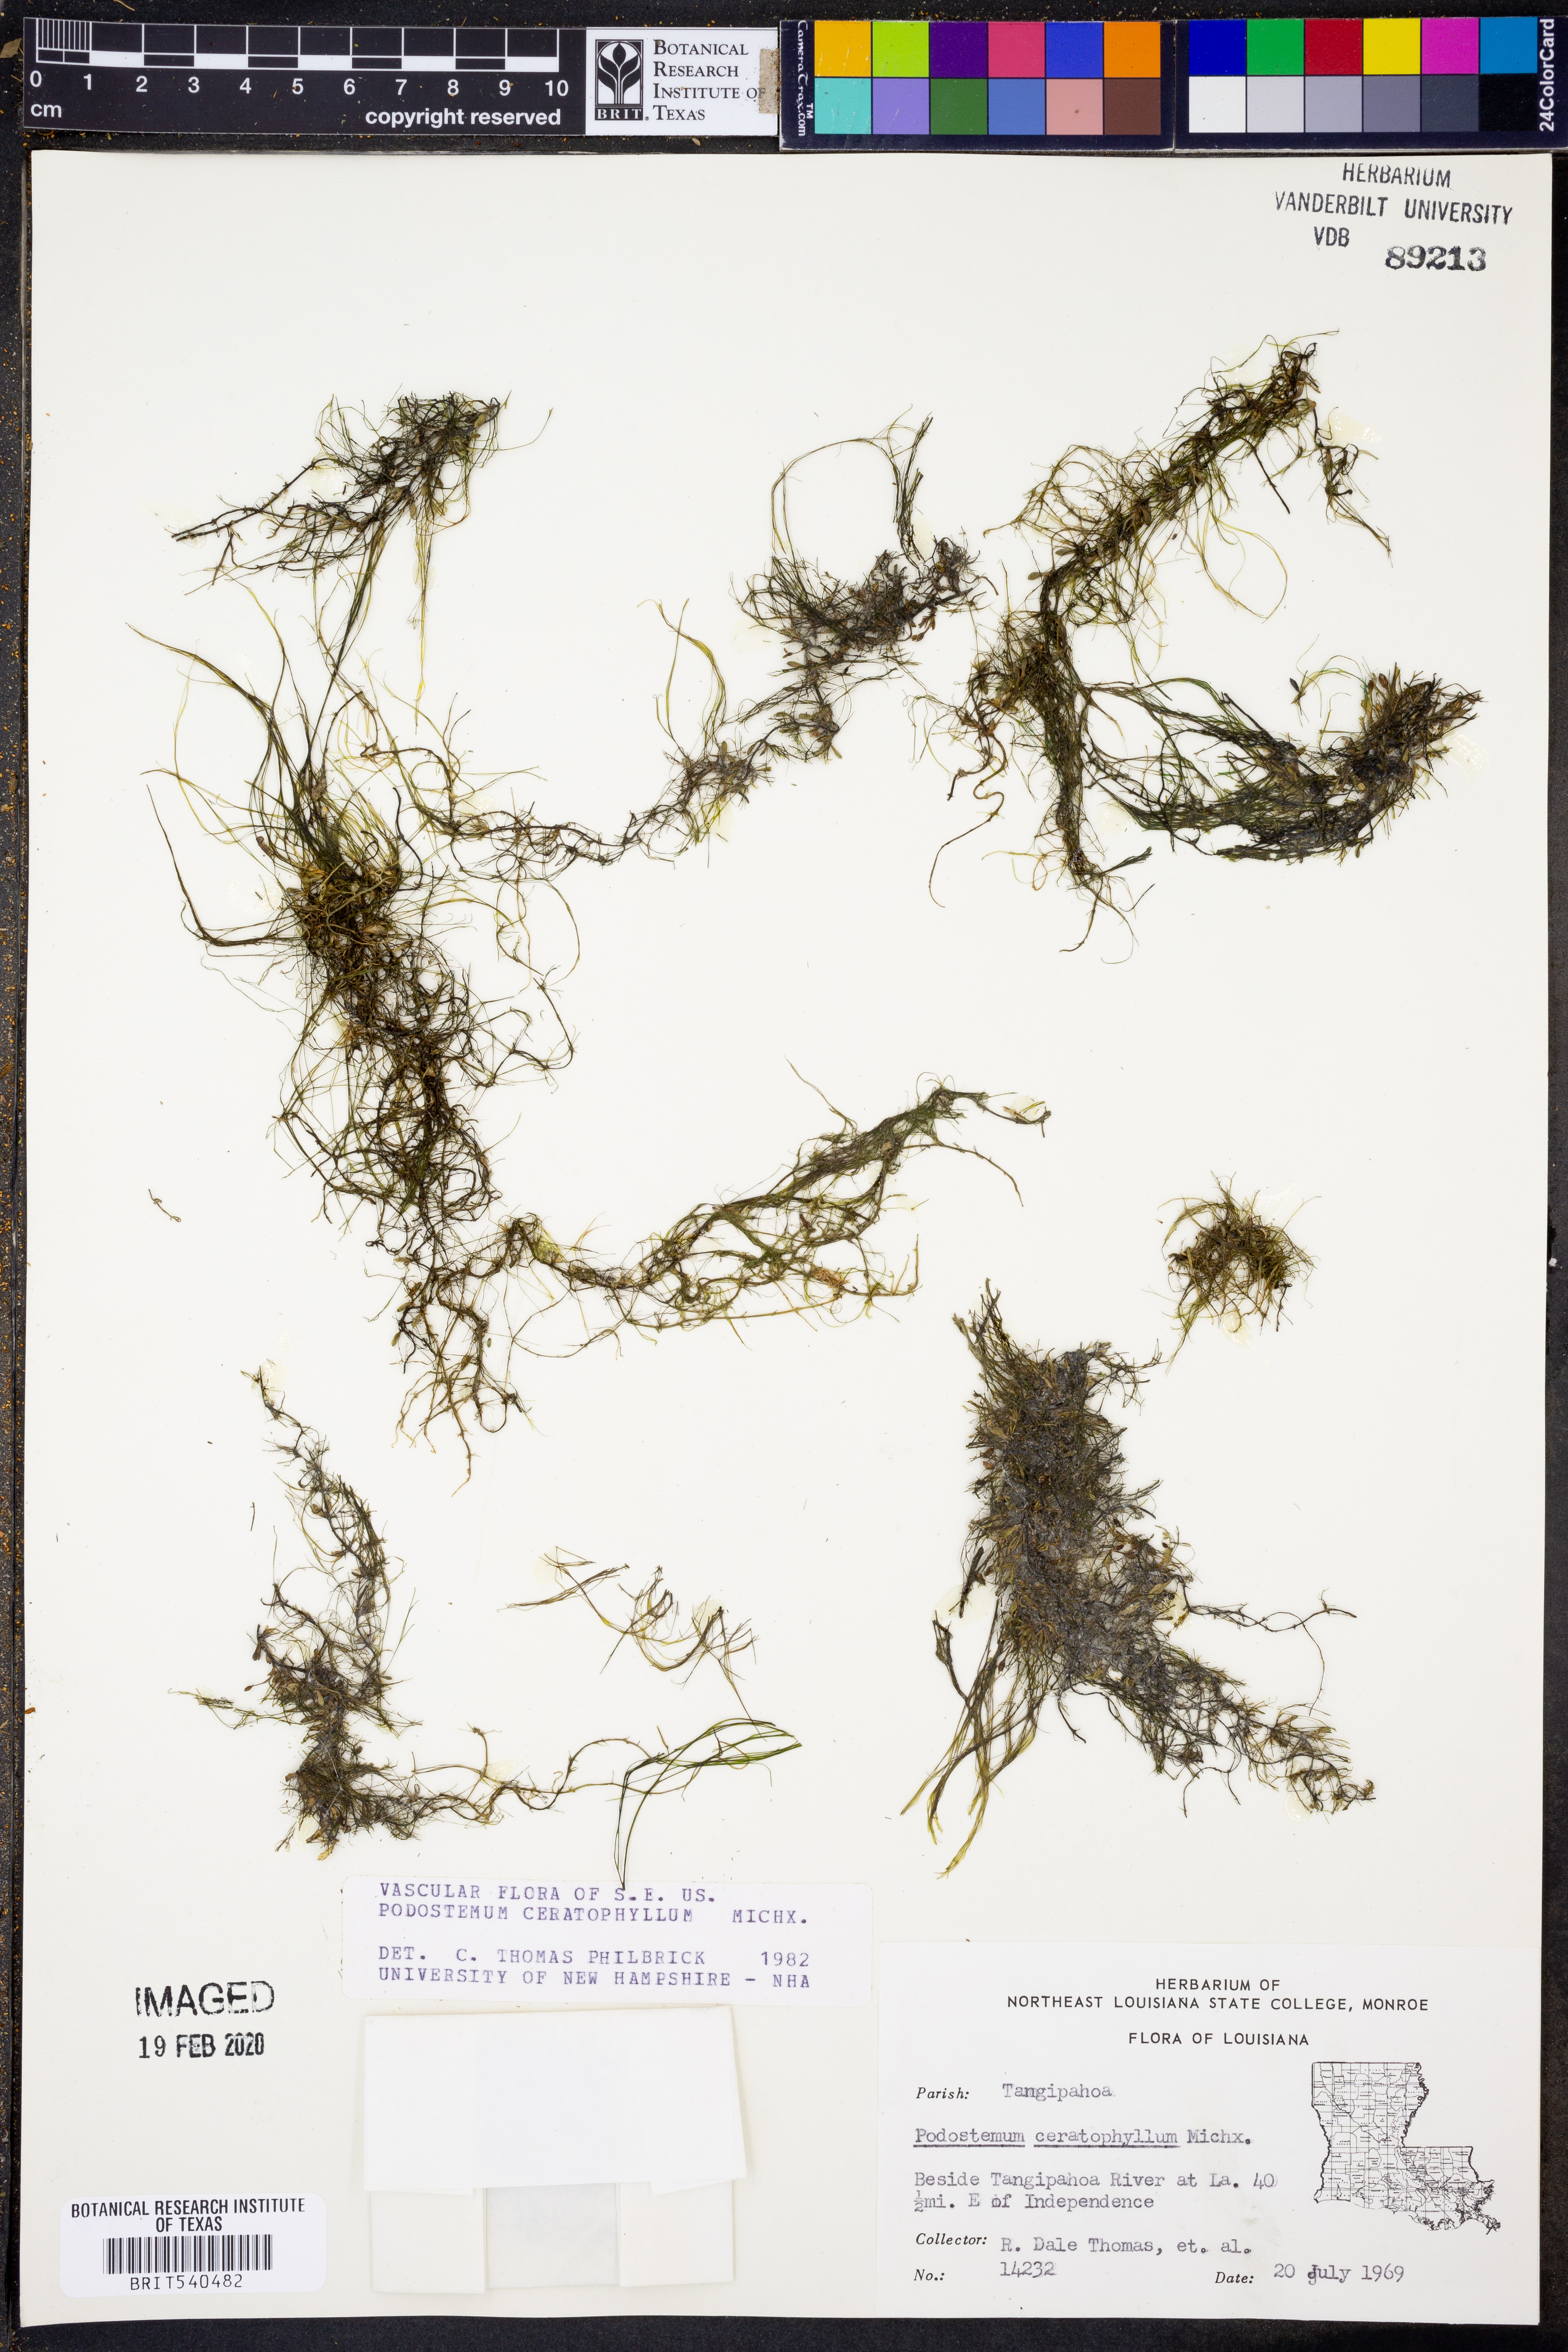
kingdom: Plantae
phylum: Tracheophyta
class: Magnoliopsida
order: Malpighiales
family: Podostemaceae
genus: Podostemum
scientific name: Podostemum ceratophyllum
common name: Horn-leaved riverweed
